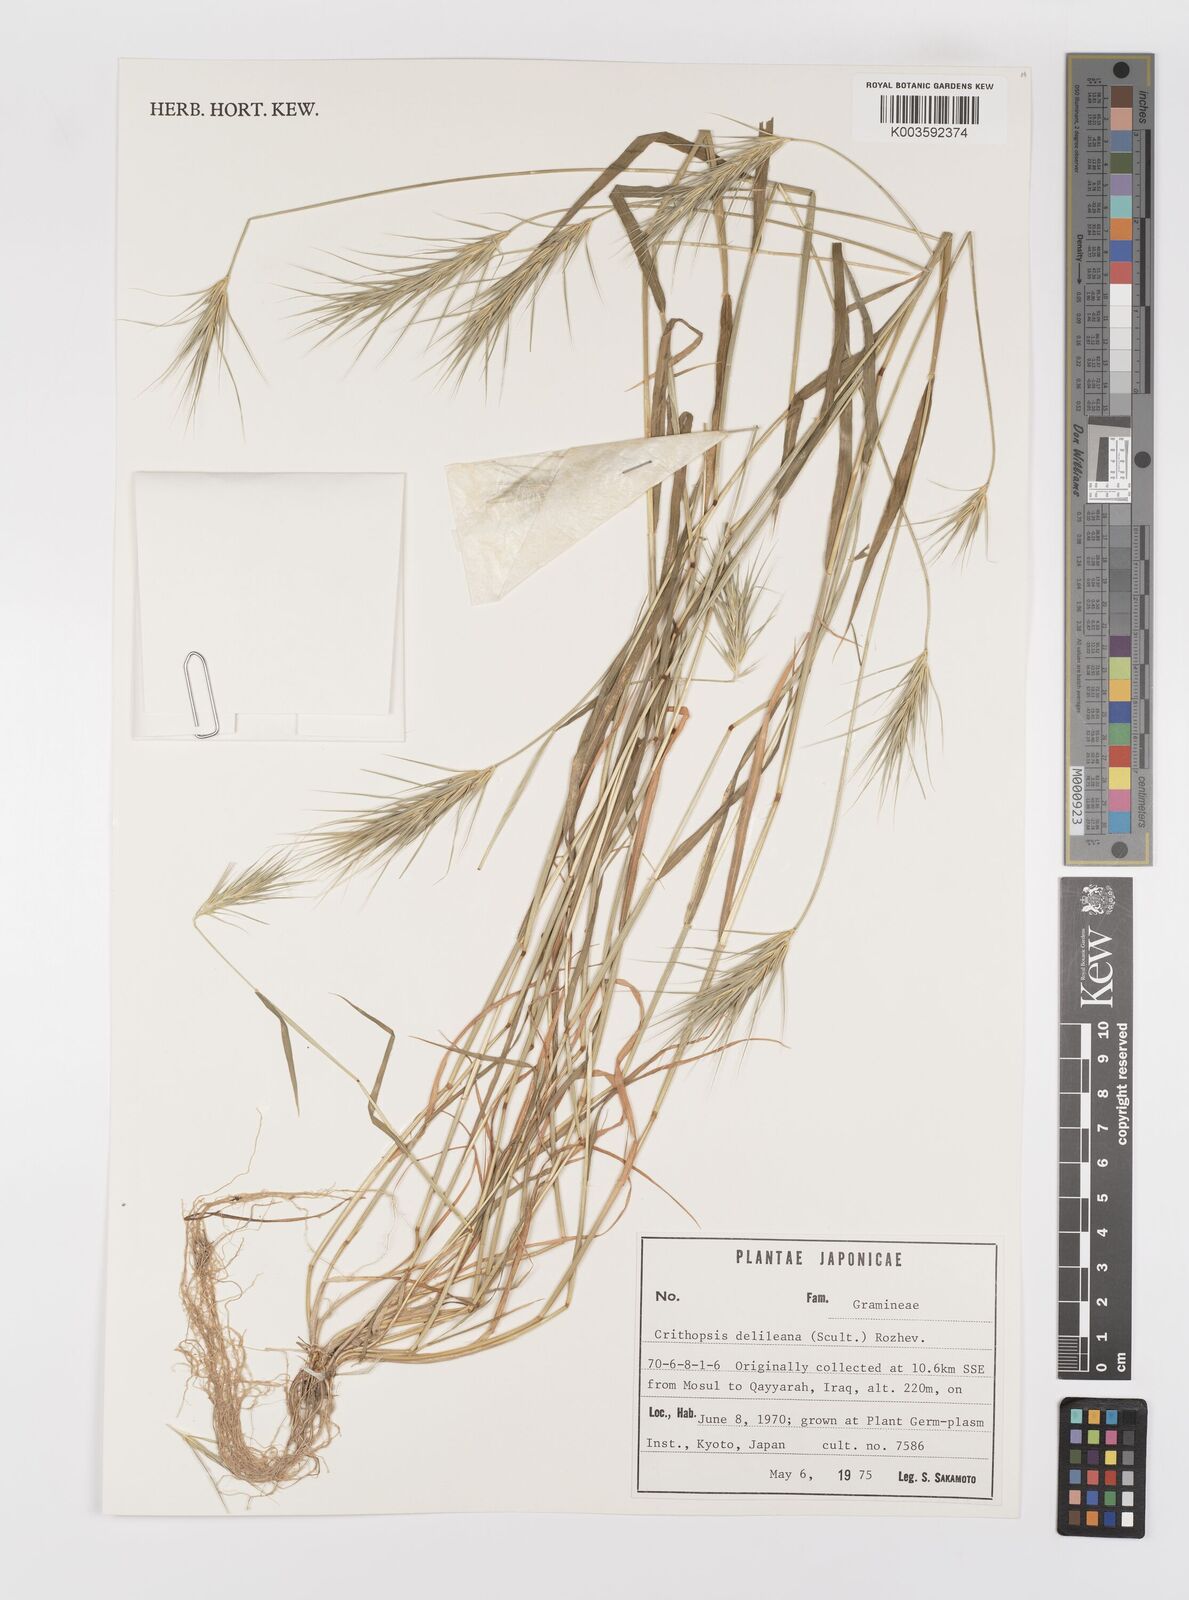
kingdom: Plantae
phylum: Tracheophyta
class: Liliopsida
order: Poales
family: Poaceae
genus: Crithopsis
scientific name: Crithopsis delileana
